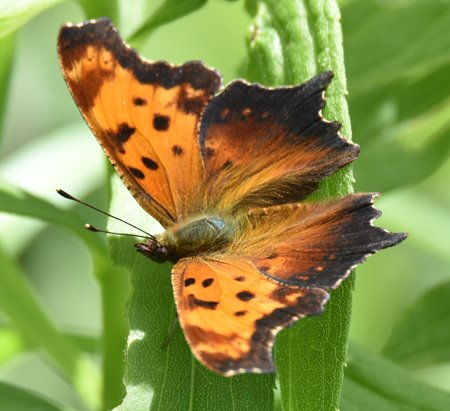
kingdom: Animalia
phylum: Arthropoda
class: Insecta
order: Lepidoptera
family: Nymphalidae
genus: Polygonia
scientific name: Polygonia progne
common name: Gray Comma
